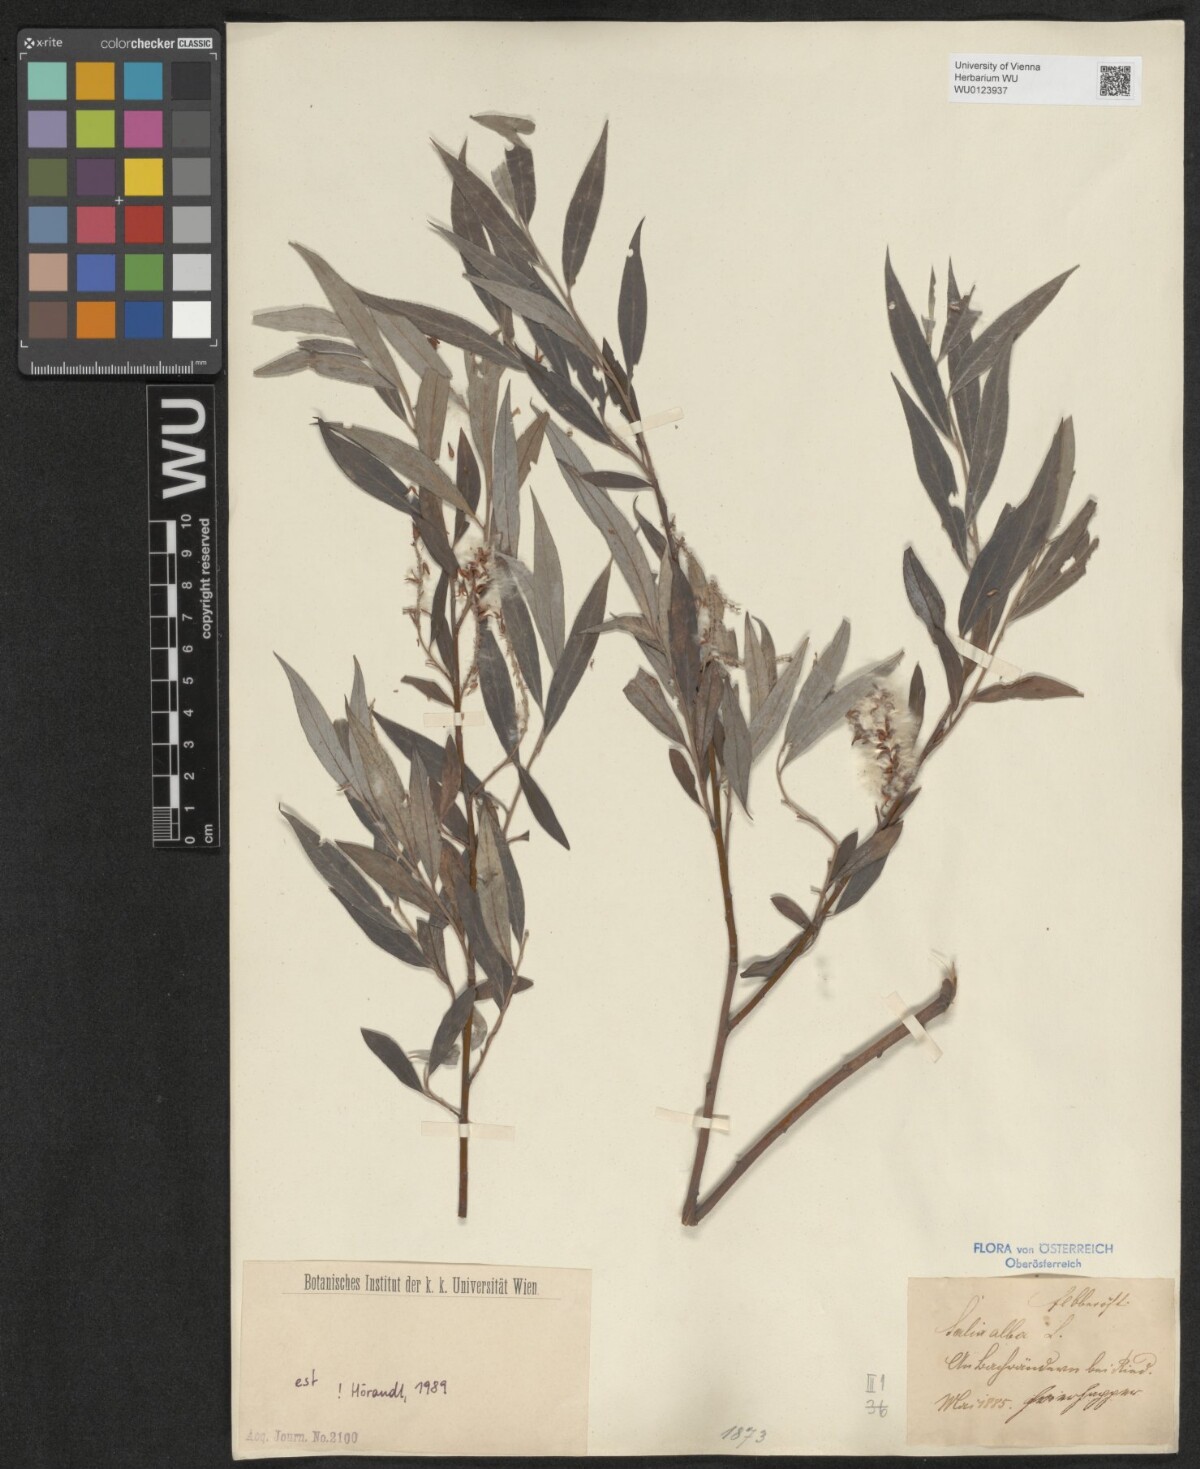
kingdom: Plantae
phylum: Tracheophyta
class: Magnoliopsida
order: Malpighiales
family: Salicaceae
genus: Salix
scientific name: Salix alba
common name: White willow
